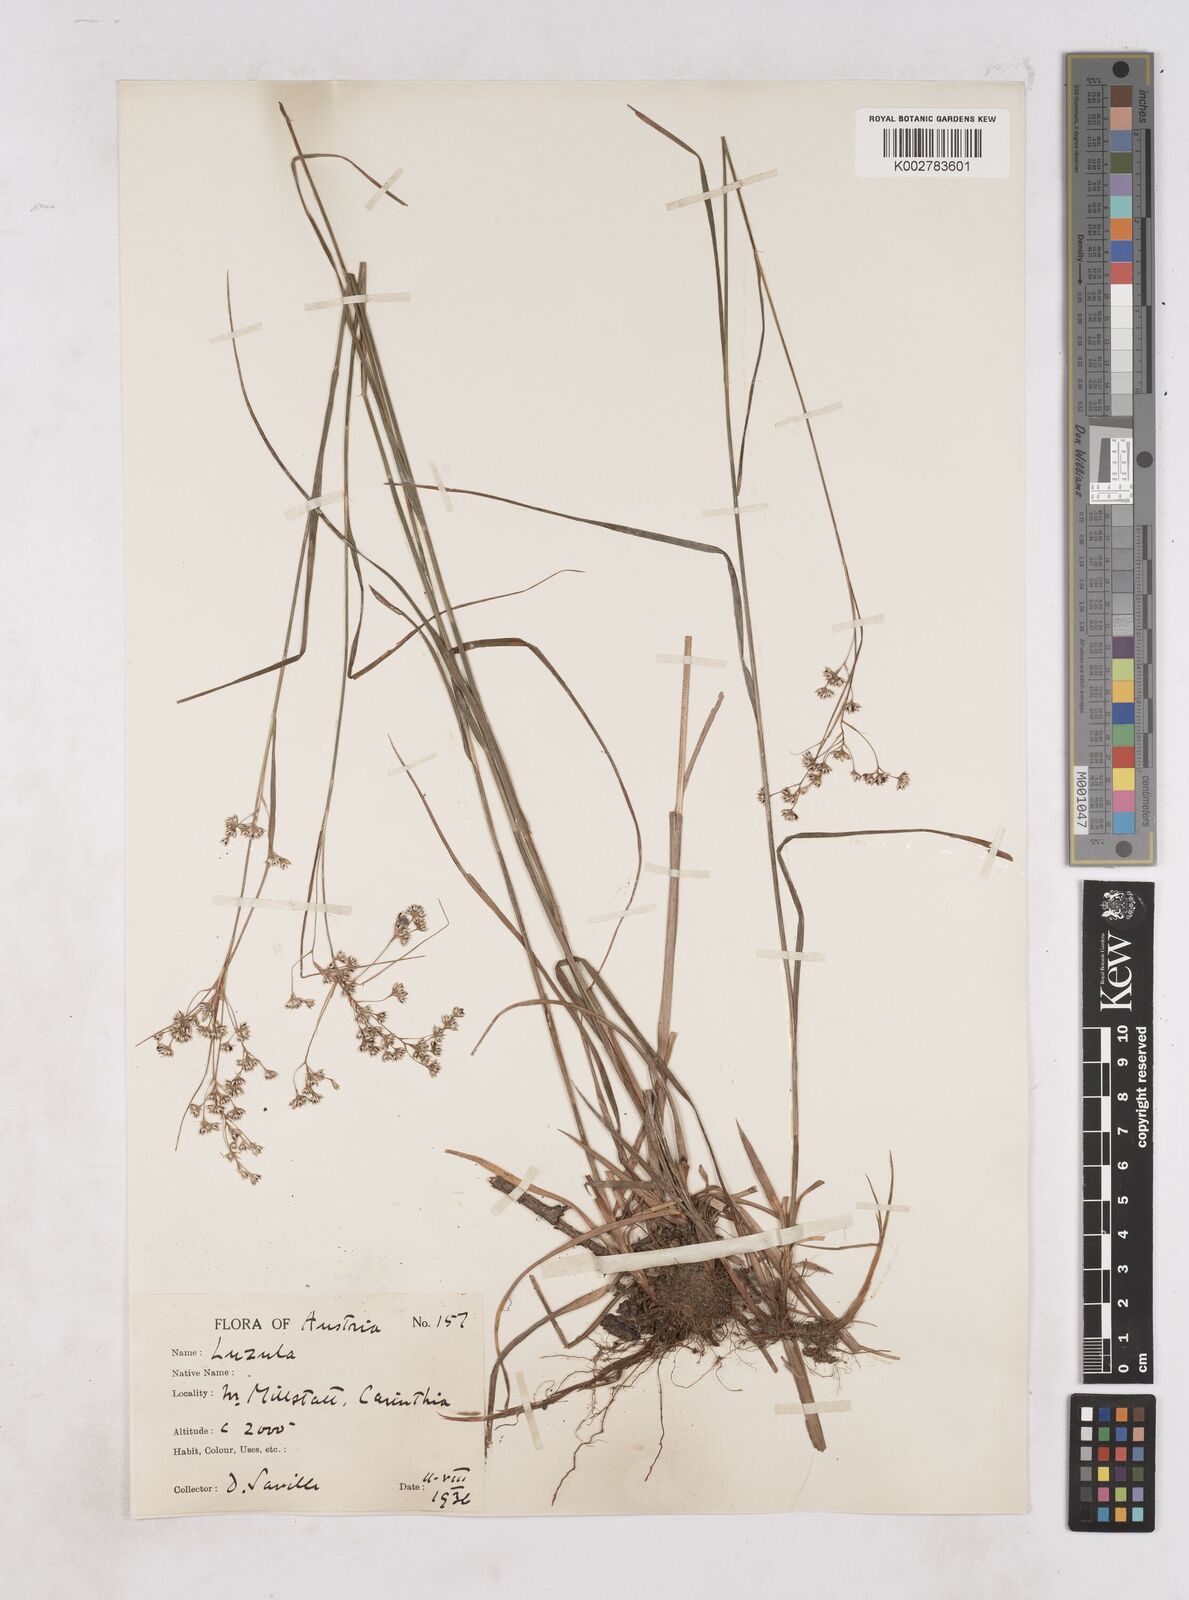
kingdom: Plantae
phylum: Tracheophyta
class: Liliopsida
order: Poales
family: Juncaceae
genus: Luzula
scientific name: Luzula
